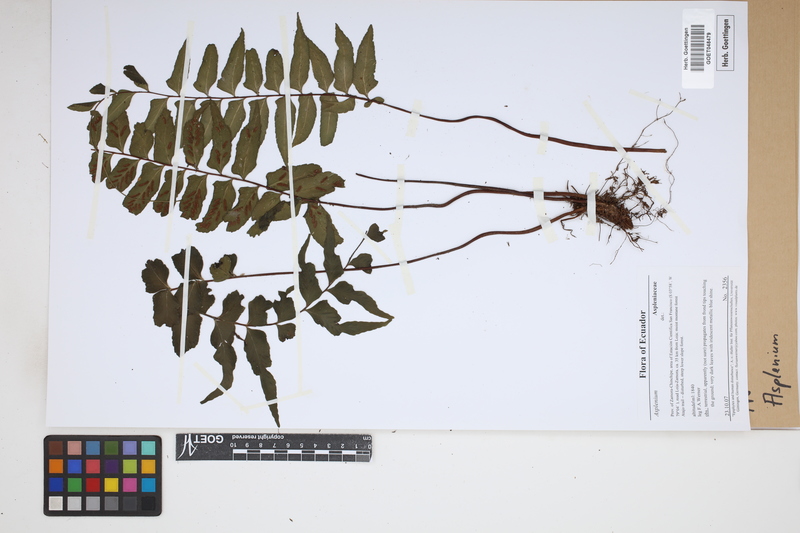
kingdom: Plantae
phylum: Tracheophyta
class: Polypodiopsida
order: Polypodiales
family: Aspleniaceae
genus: Asplenium
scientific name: Asplenium
